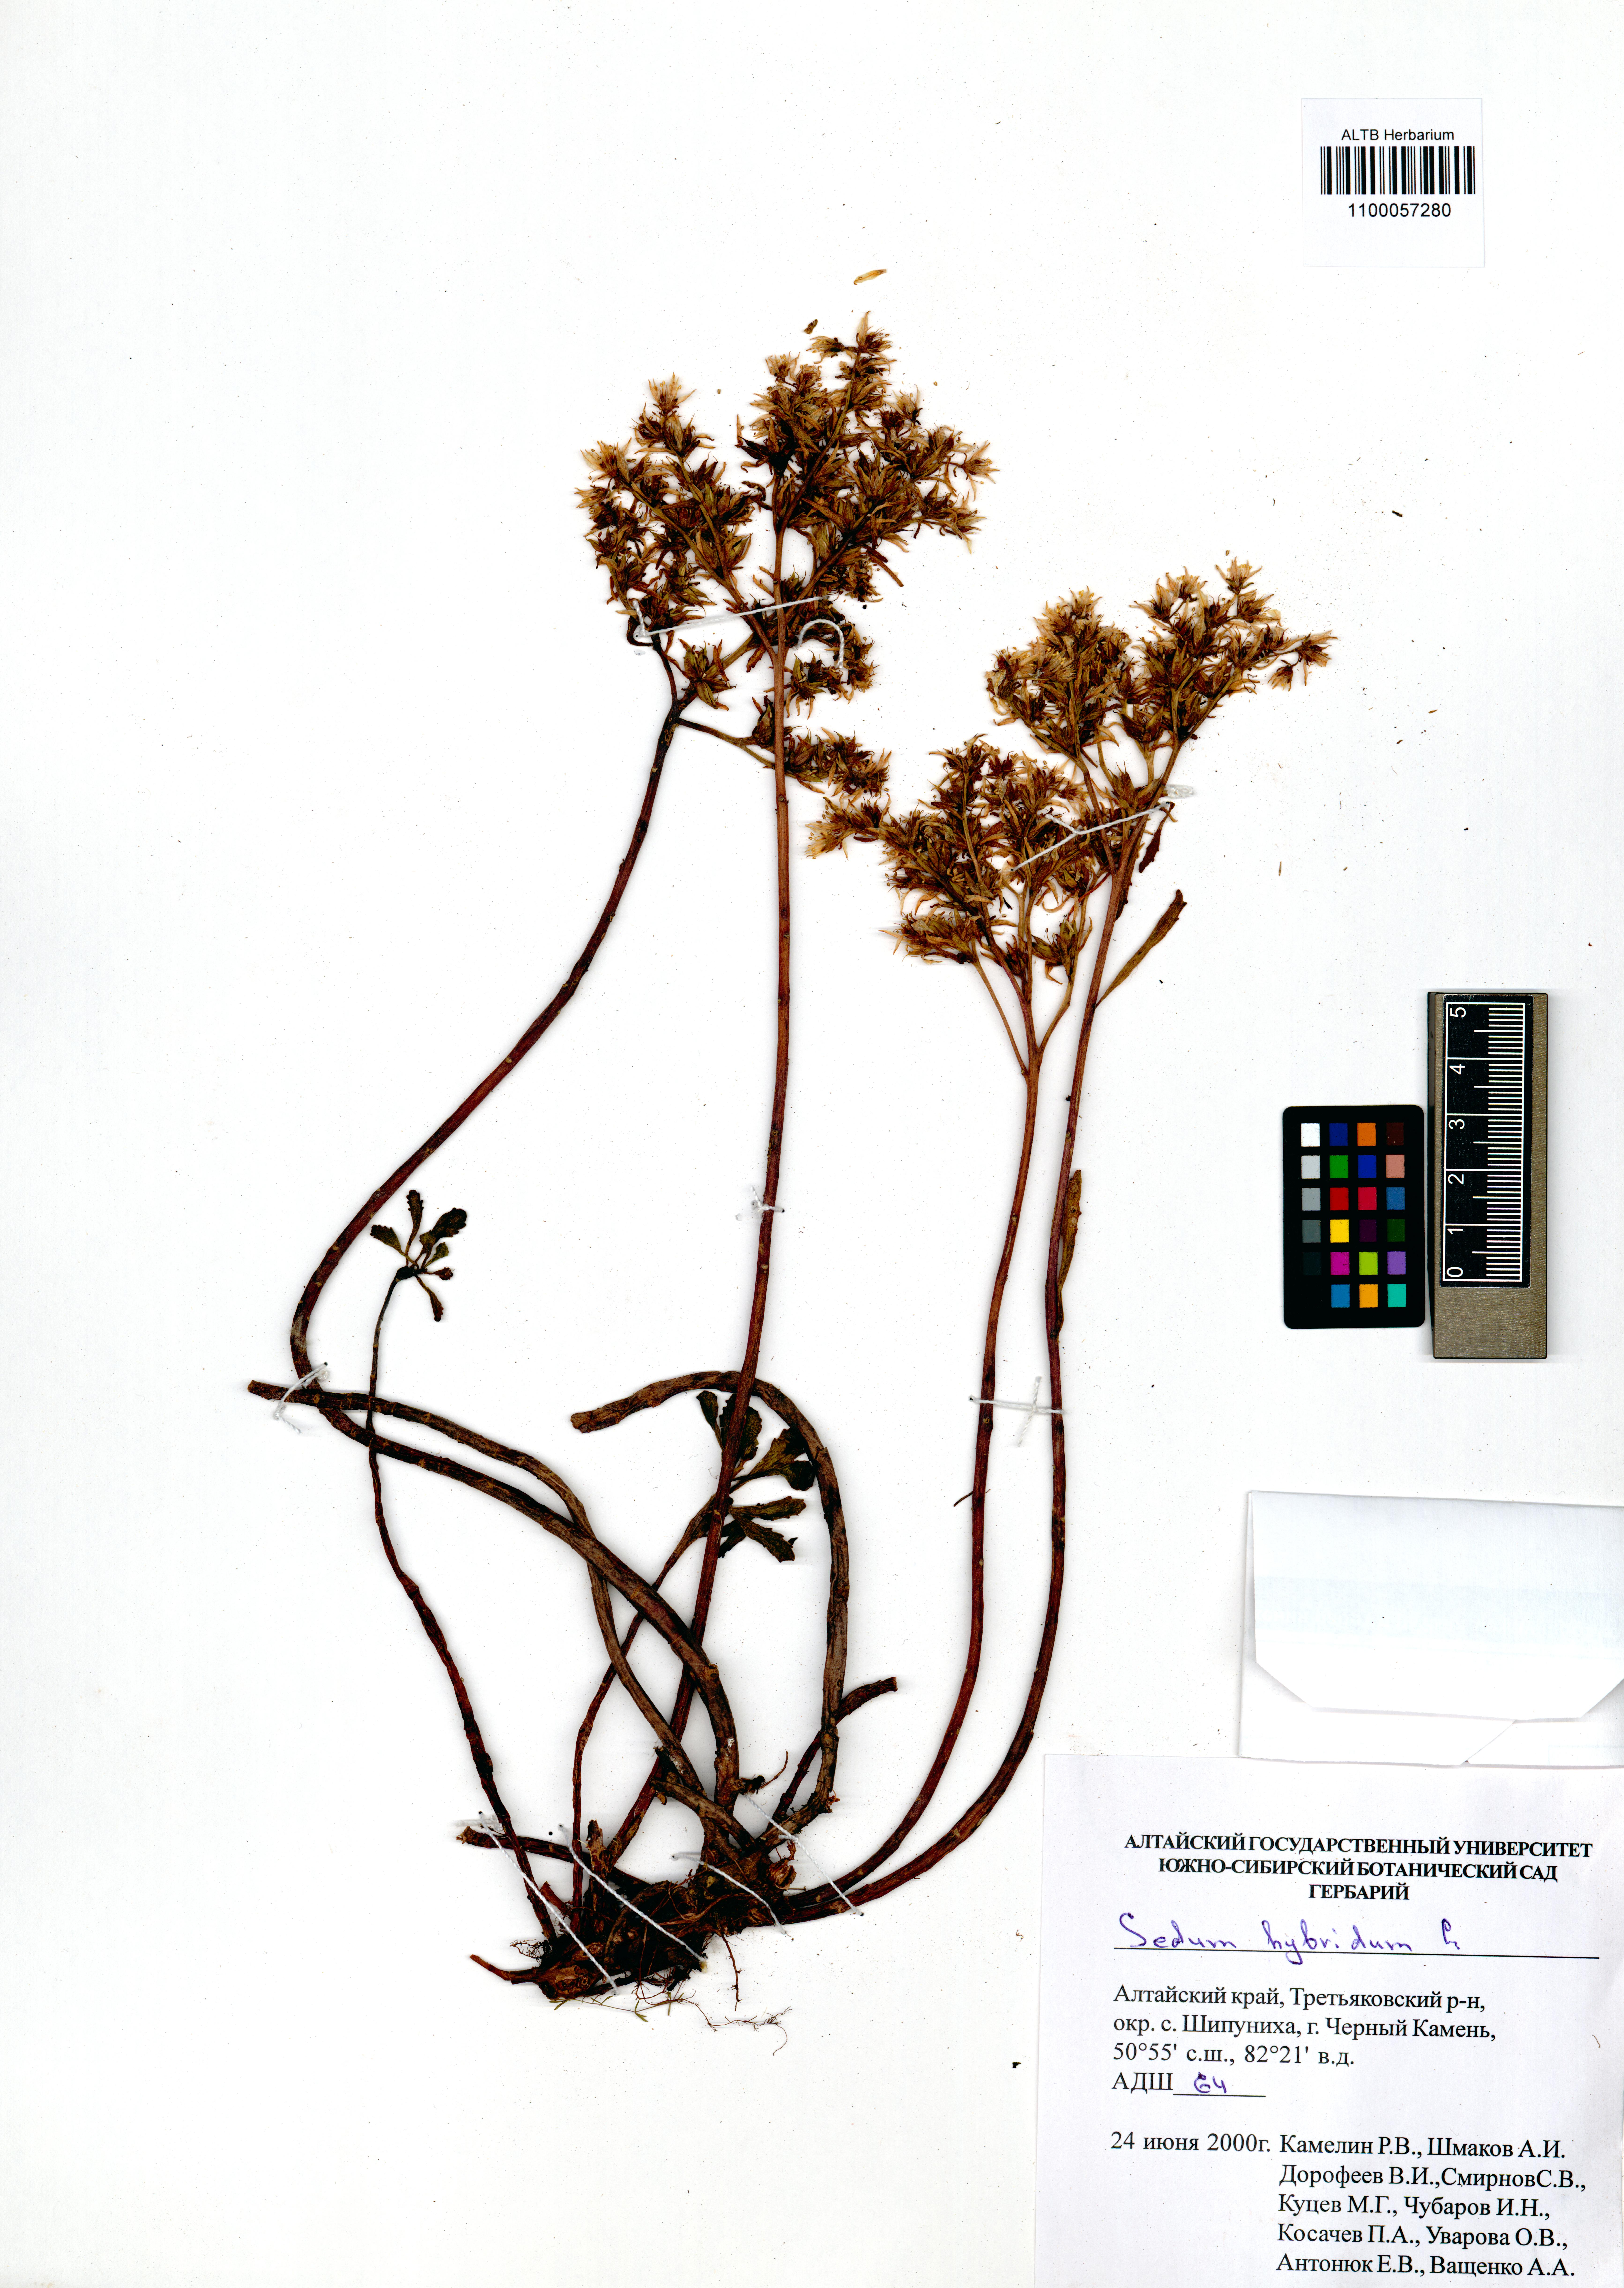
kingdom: Plantae
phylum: Tracheophyta
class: Magnoliopsida
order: Saxifragales
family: Crassulaceae
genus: Phedimus
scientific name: Phedimus hybridus
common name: Hybrid stonecrop
